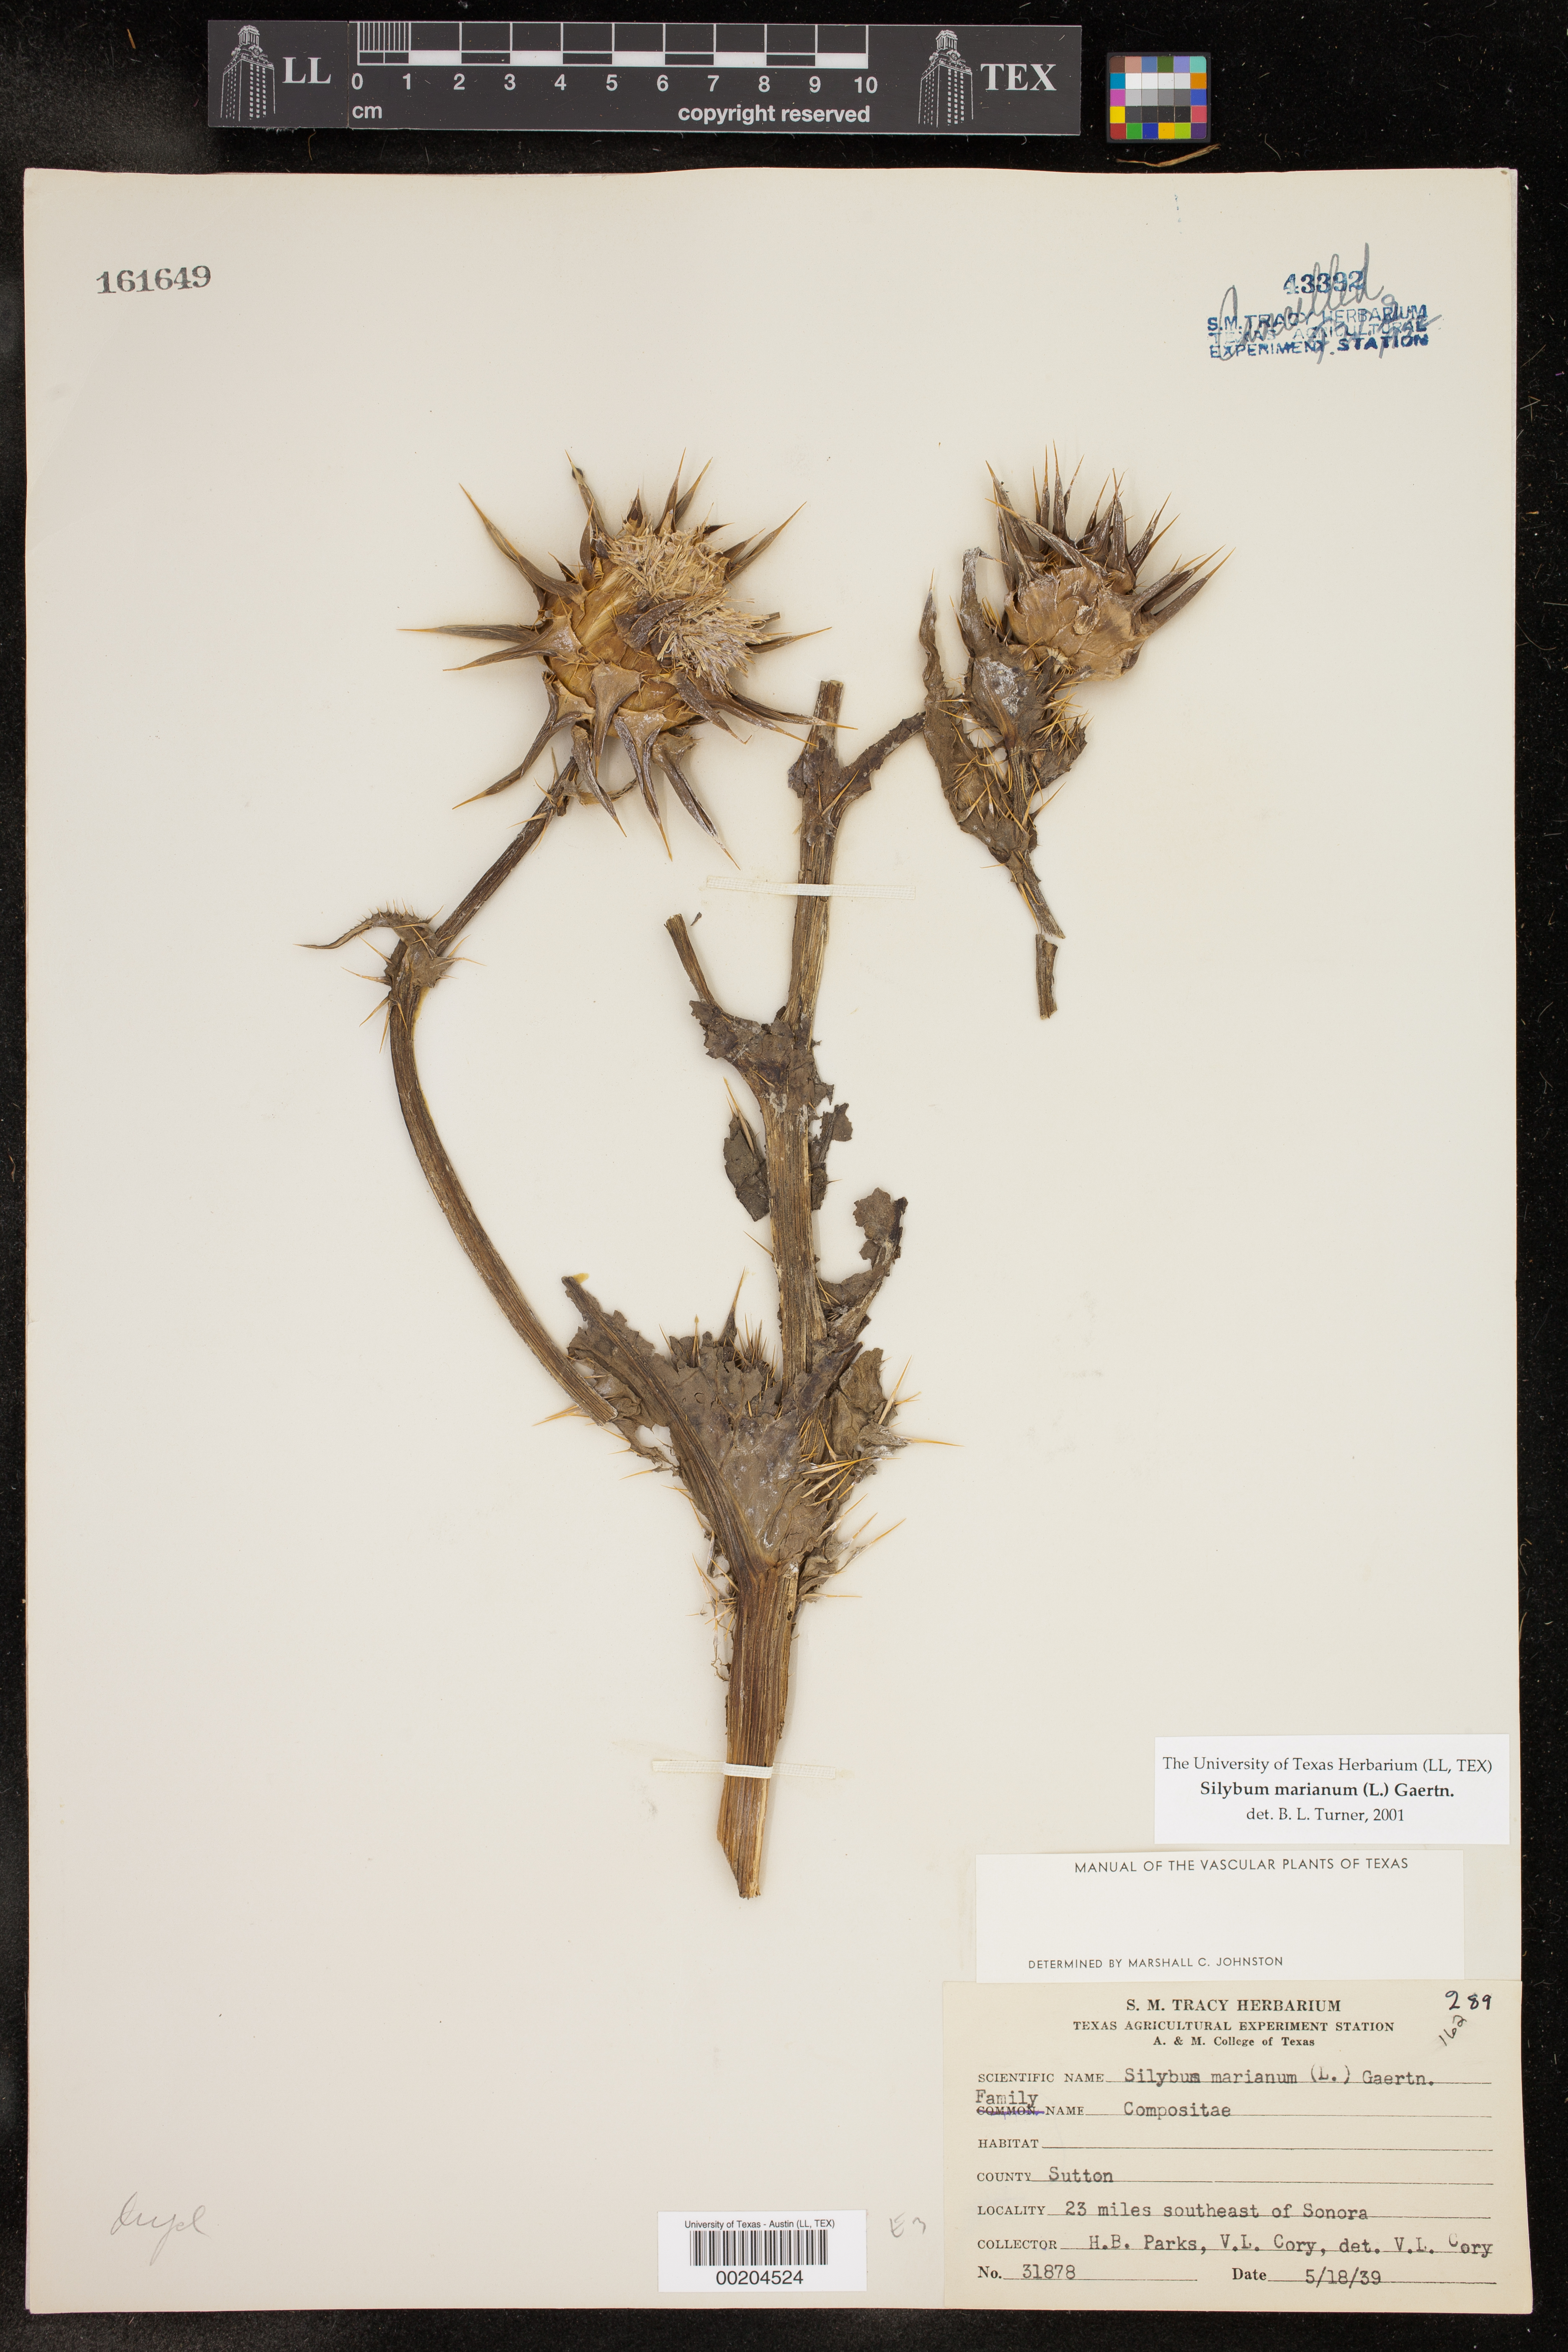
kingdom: Plantae
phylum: Tracheophyta
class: Magnoliopsida
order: Asterales
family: Asteraceae
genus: Silybum
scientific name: Silybum marianum
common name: Milk thistle
